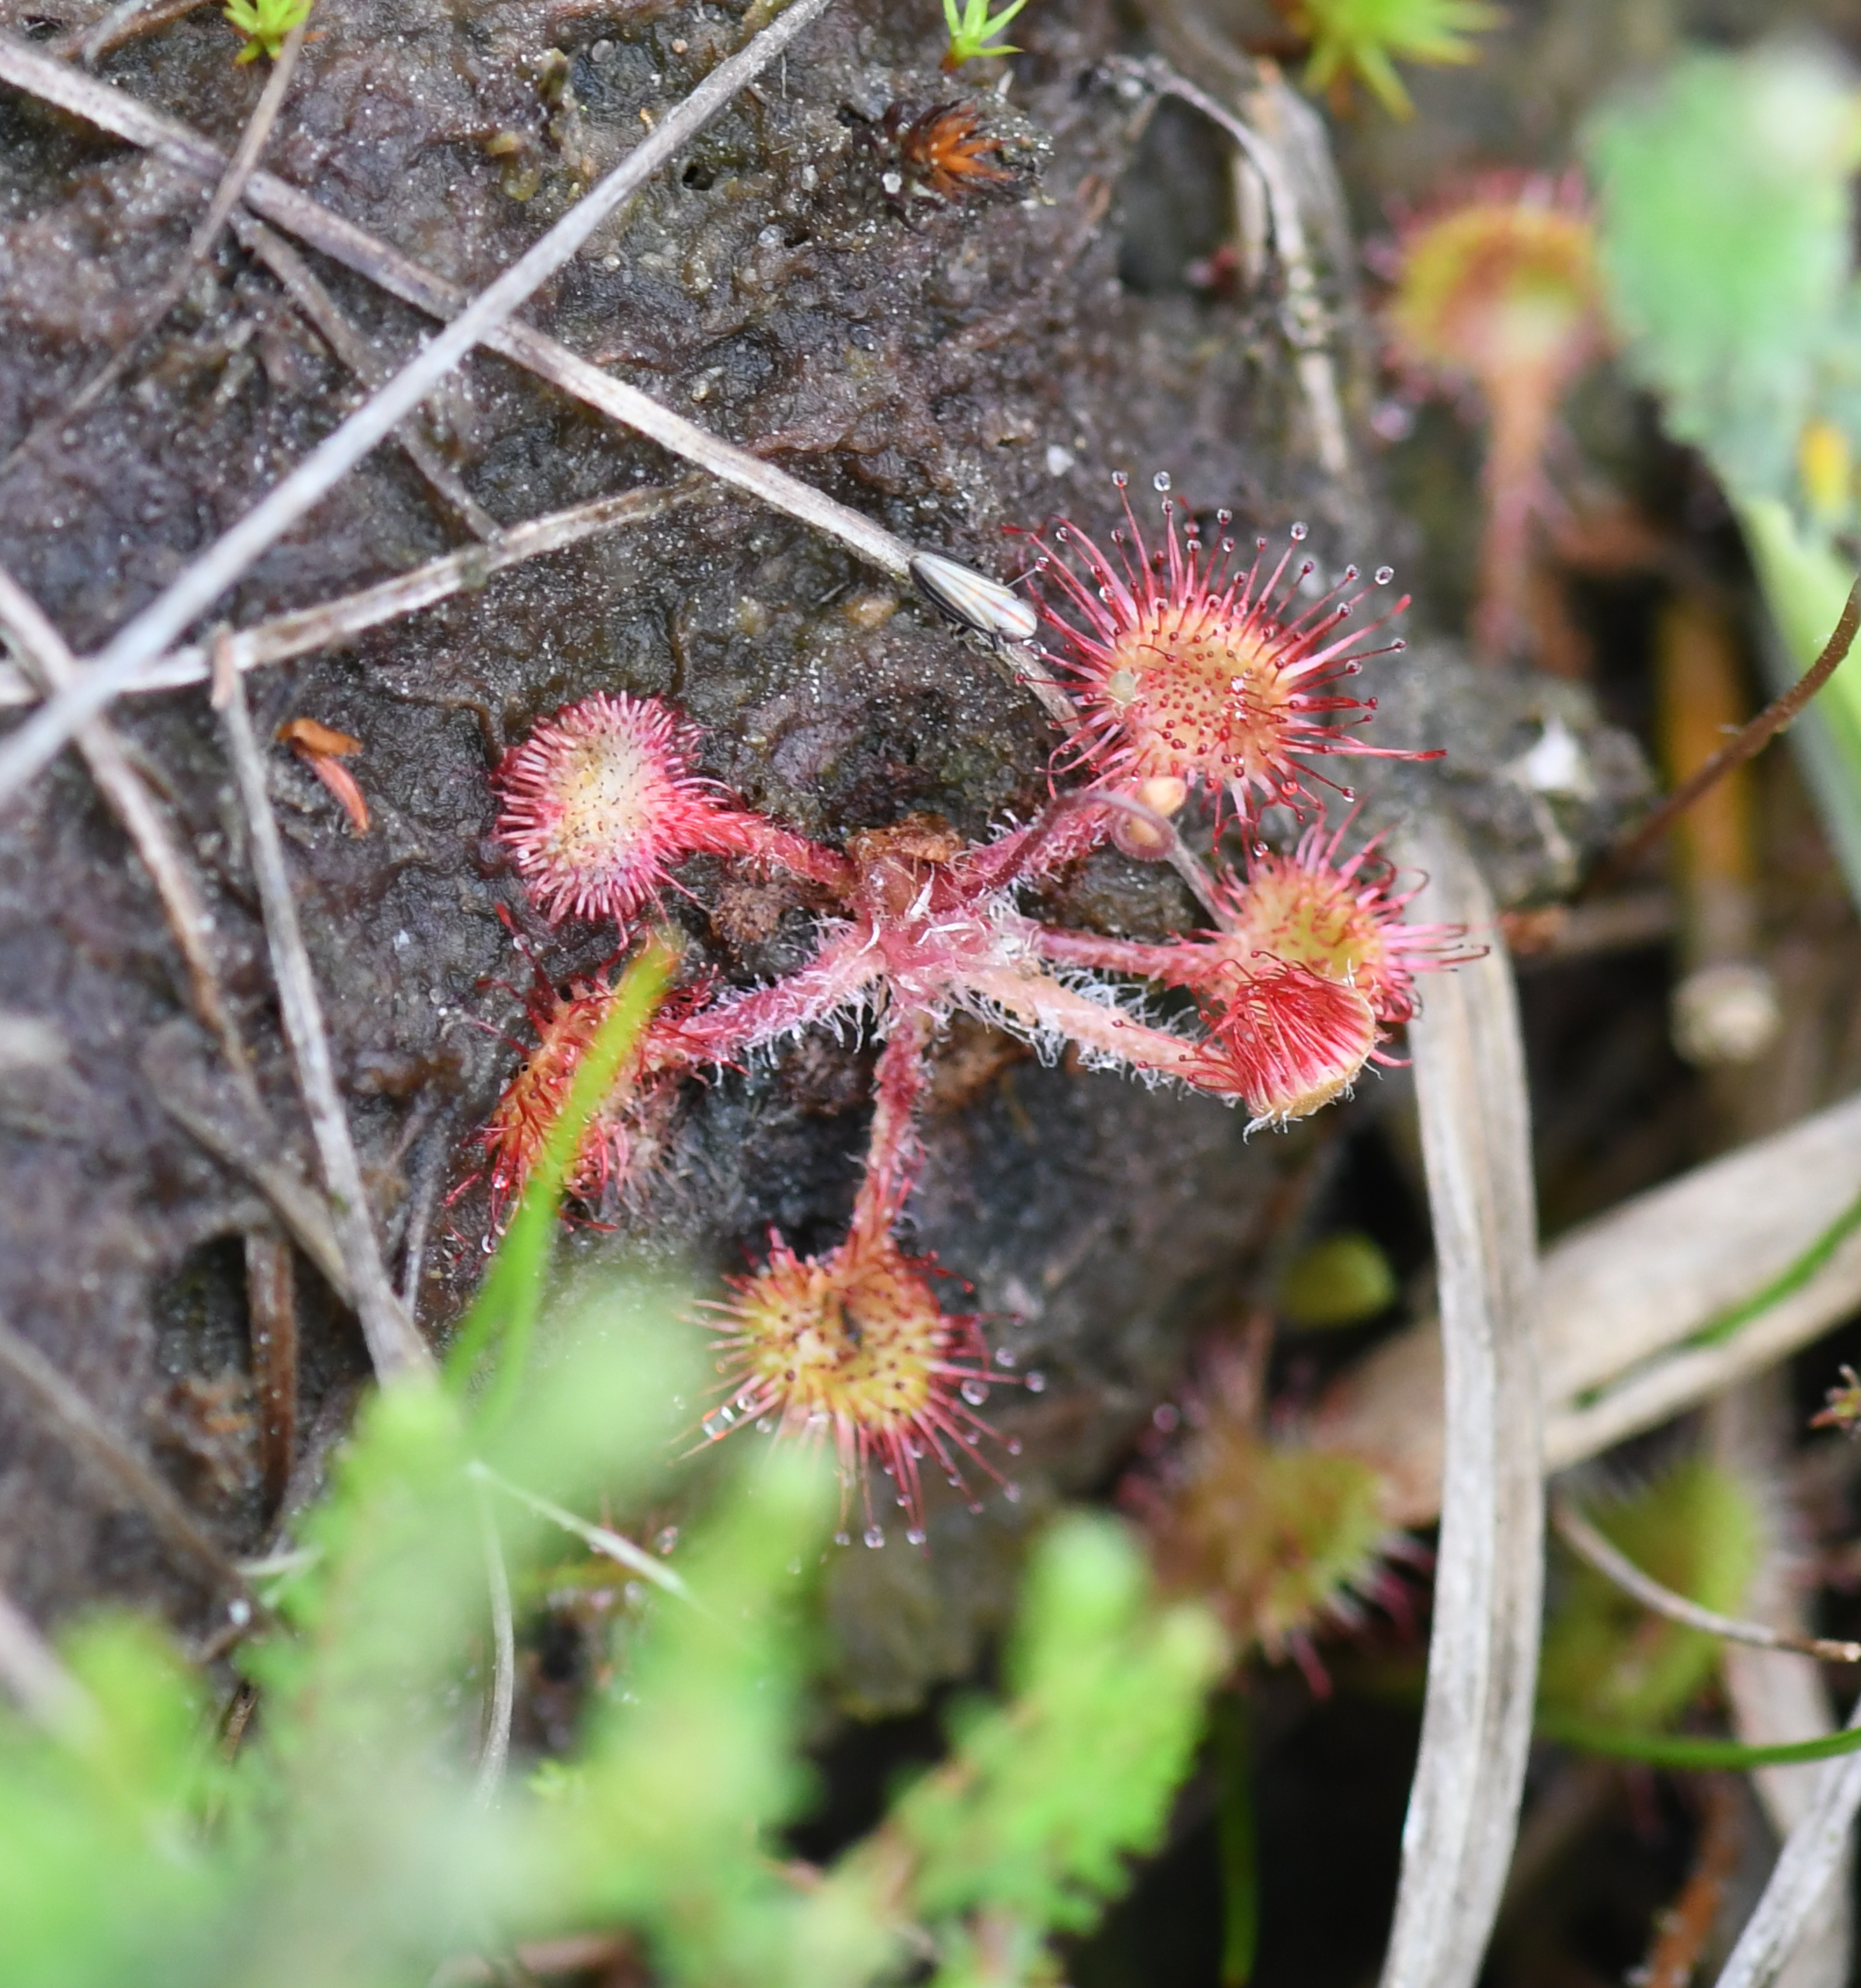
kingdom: Plantae
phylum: Tracheophyta
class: Magnoliopsida
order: Caryophyllales
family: Droseraceae
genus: Drosera
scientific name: Drosera rotundifolia
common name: Rundbladet soldug
